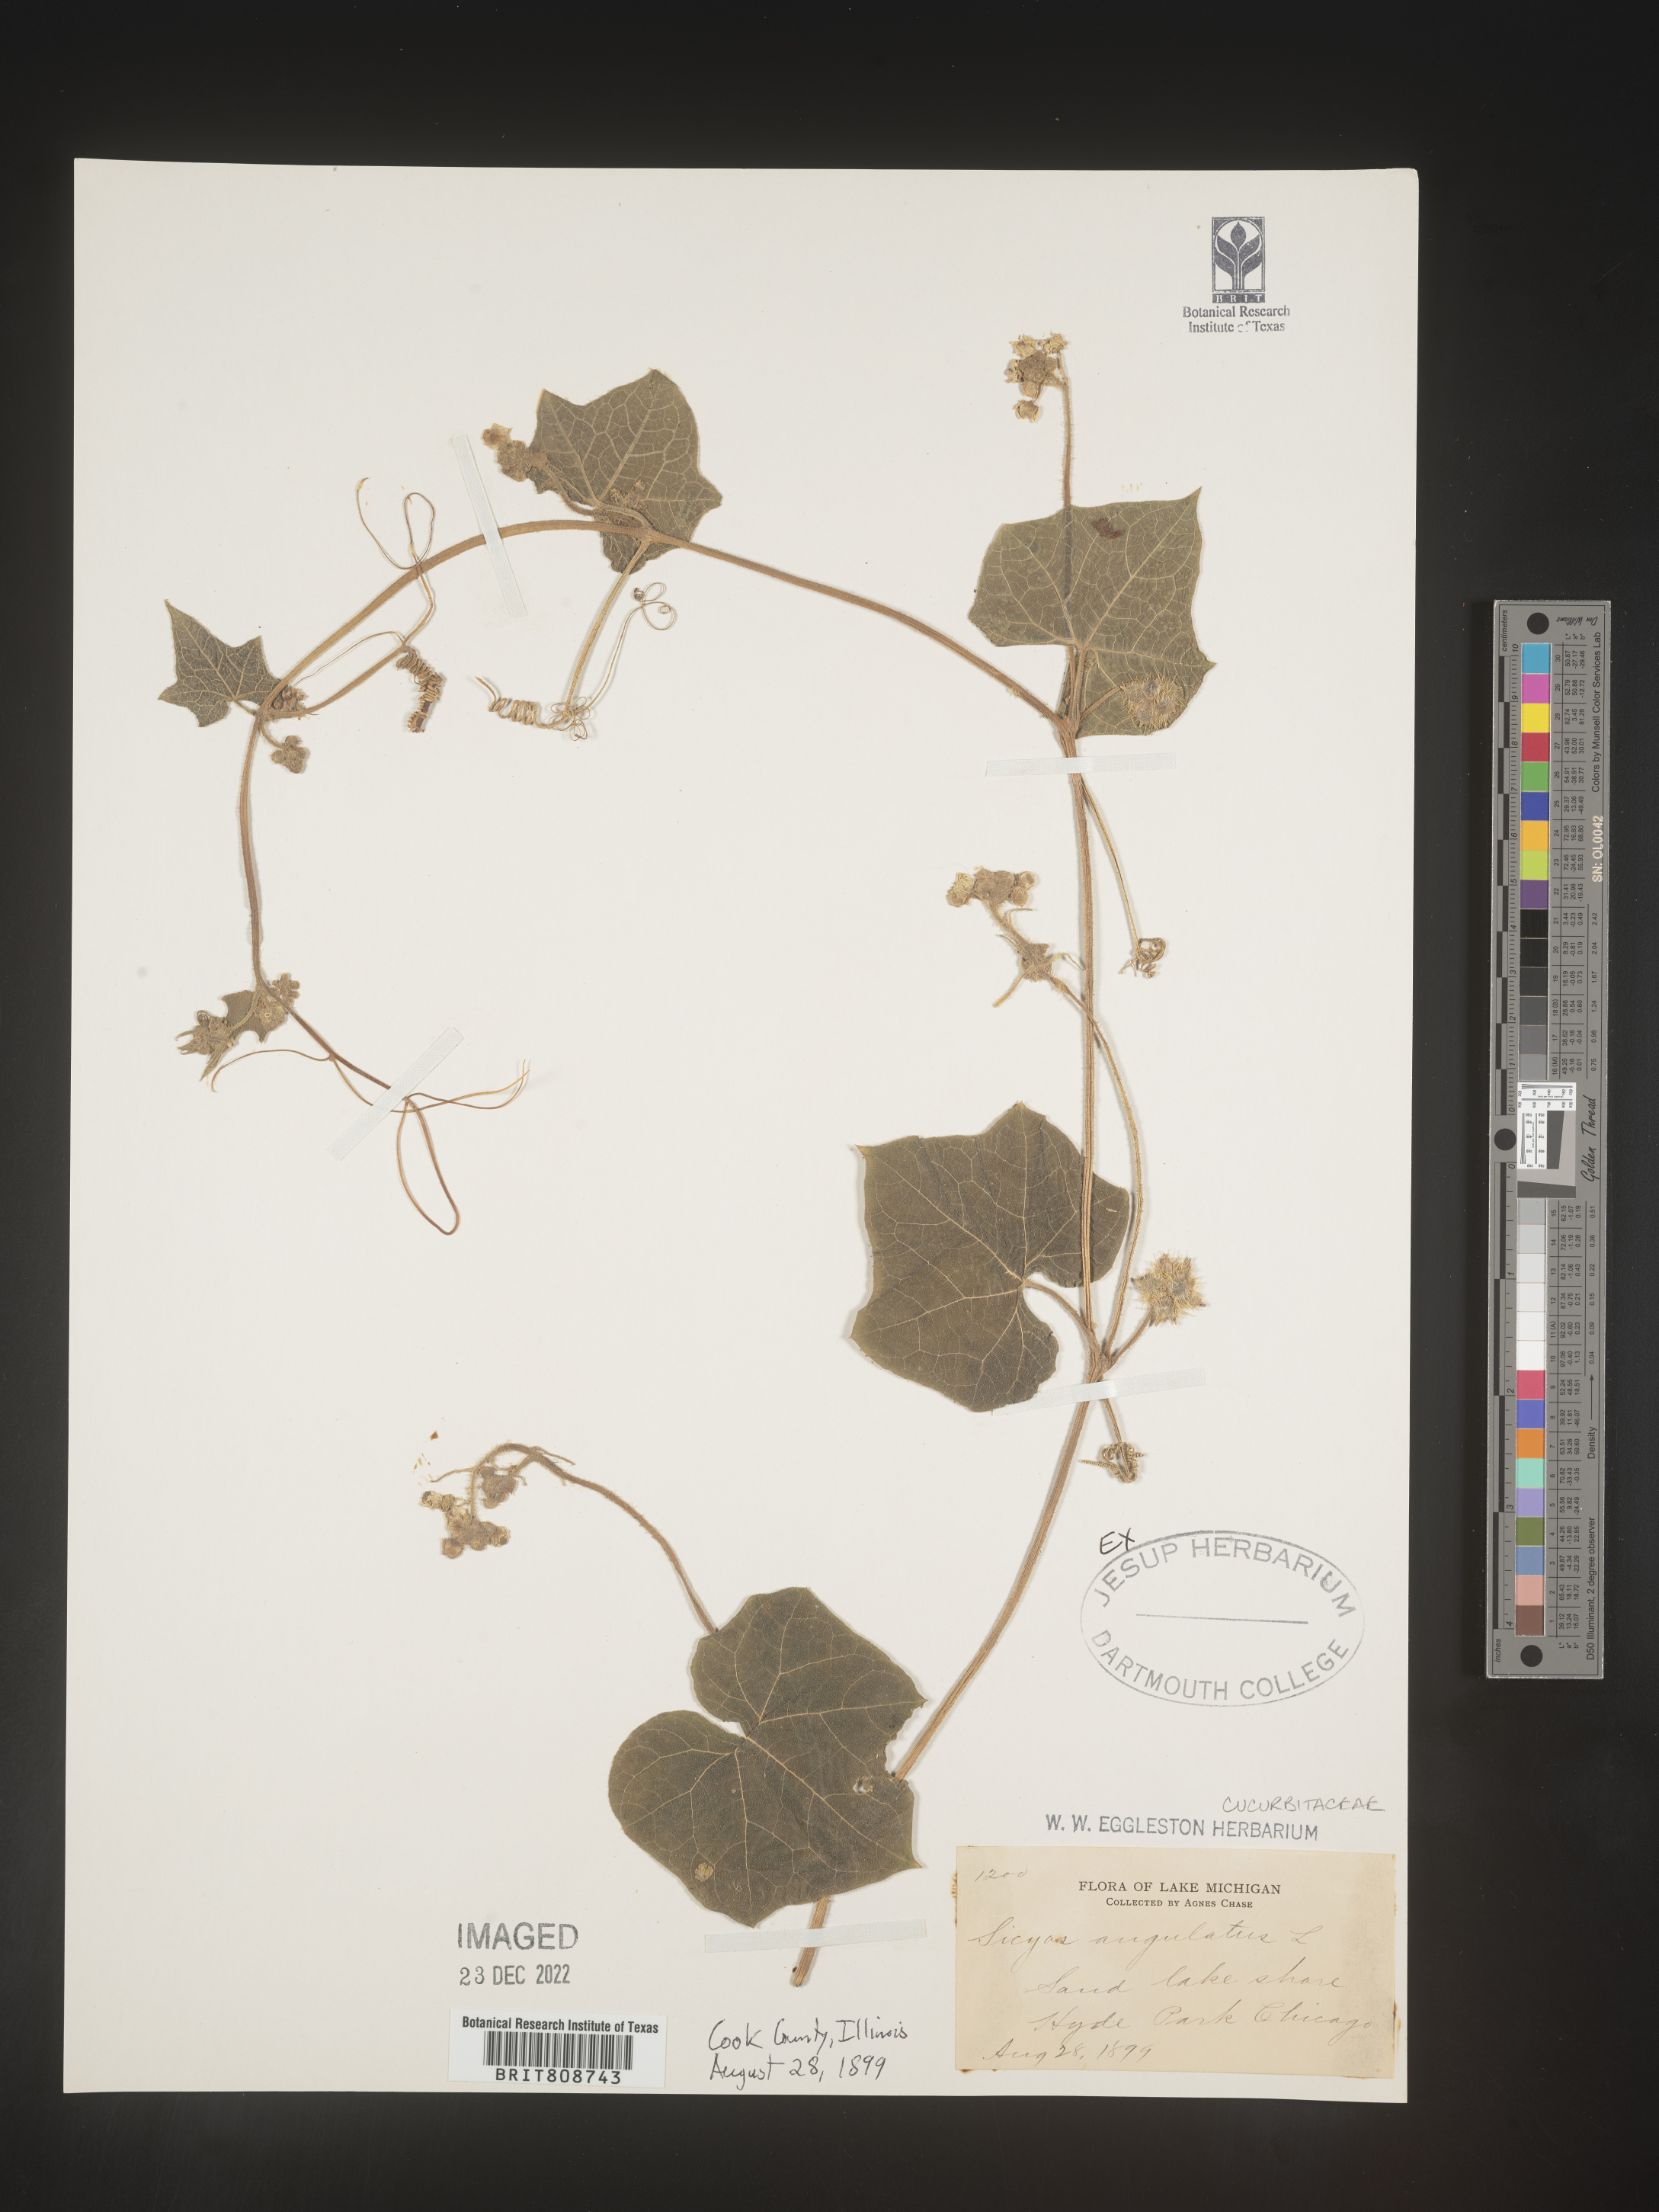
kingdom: Plantae
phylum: Tracheophyta
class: Magnoliopsida
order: Cucurbitales
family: Cucurbitaceae
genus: Sicyos
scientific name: Sicyos angulatus
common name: Angled burr cucumber
